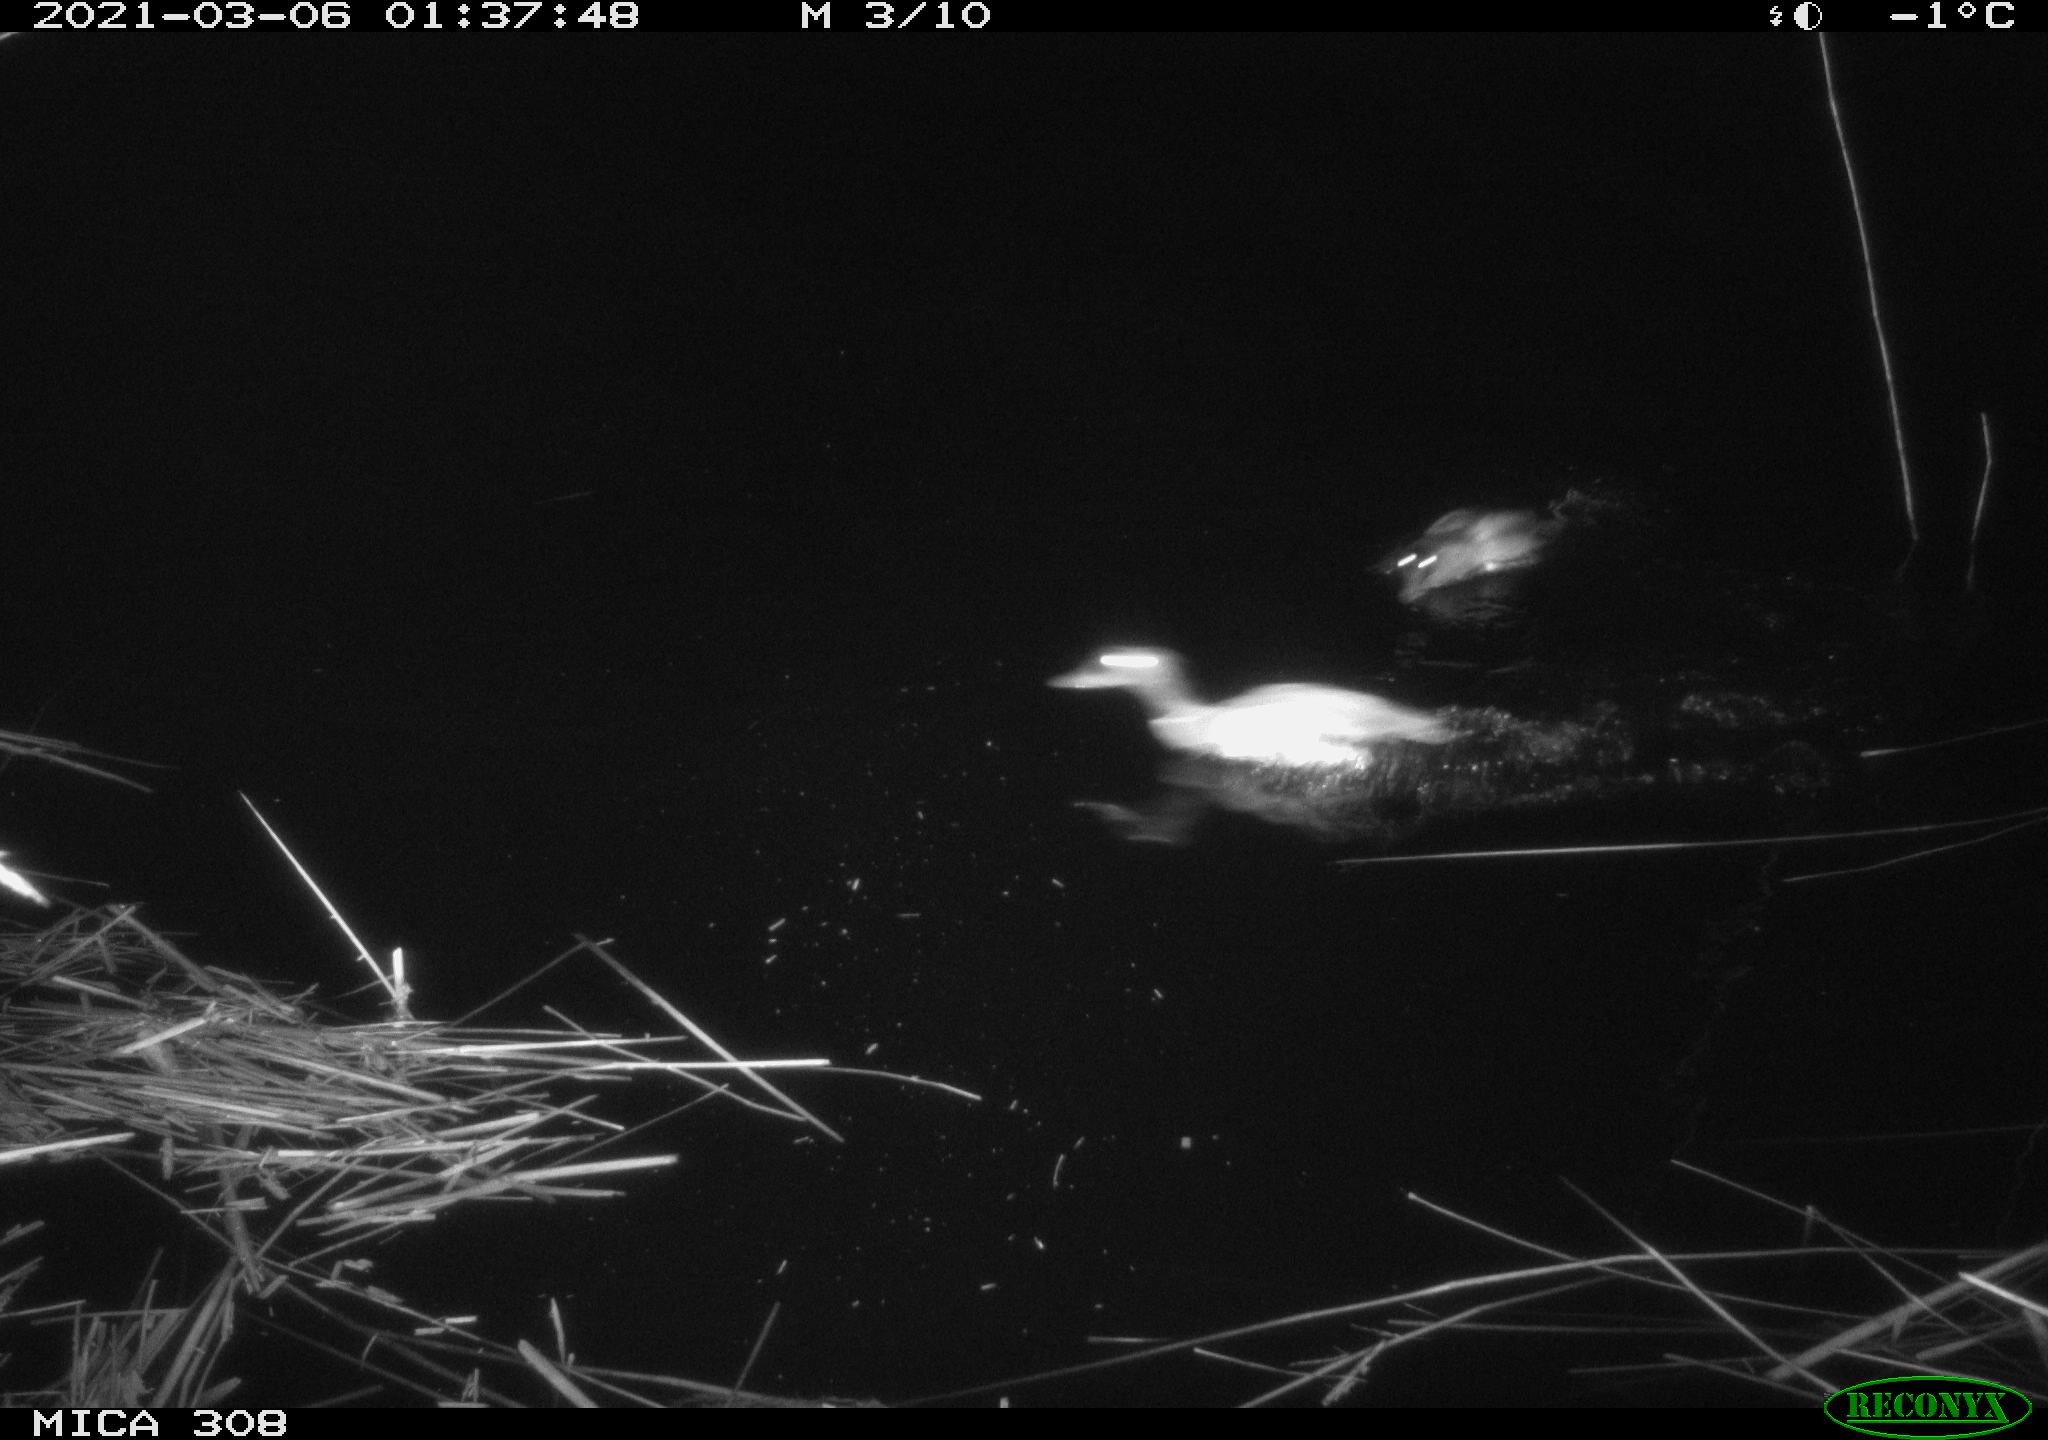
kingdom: Animalia
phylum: Chordata
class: Aves
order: Anseriformes
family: Anatidae
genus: Anas
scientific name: Anas platyrhynchos
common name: Mallard
